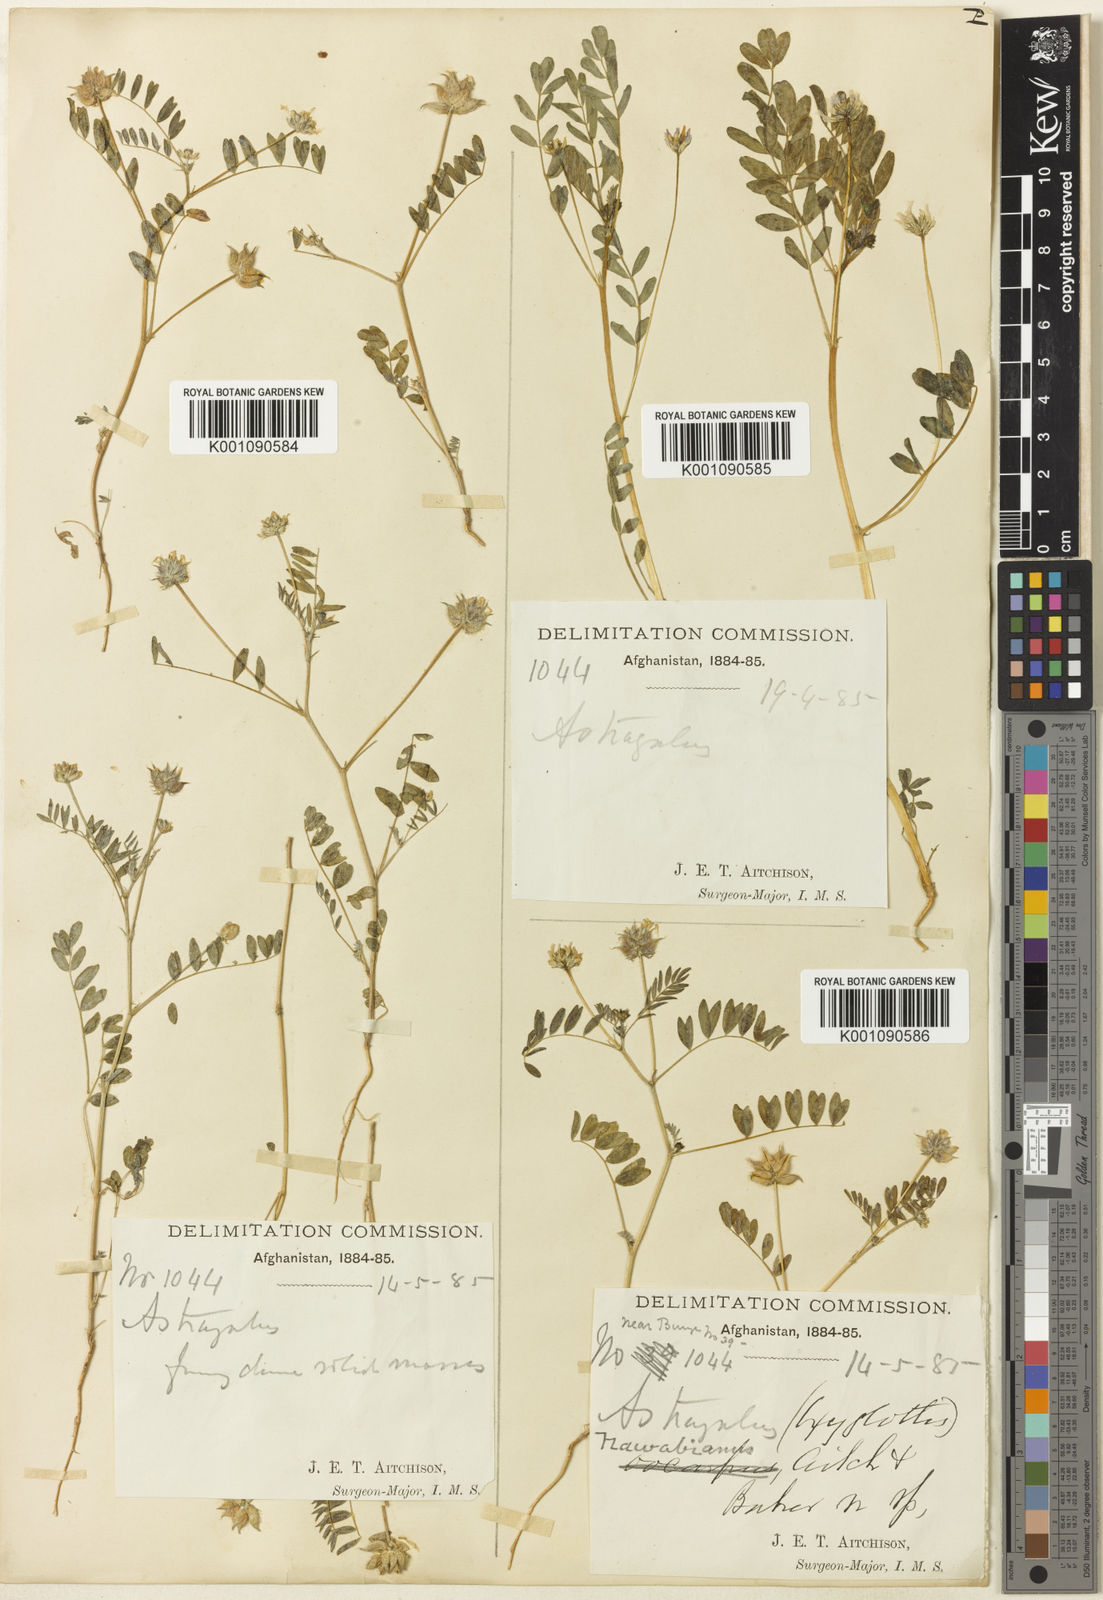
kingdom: Plantae
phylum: Tracheophyta
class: Magnoliopsida
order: Fabales
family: Fabaceae
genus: Astragalus
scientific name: Astragalus
